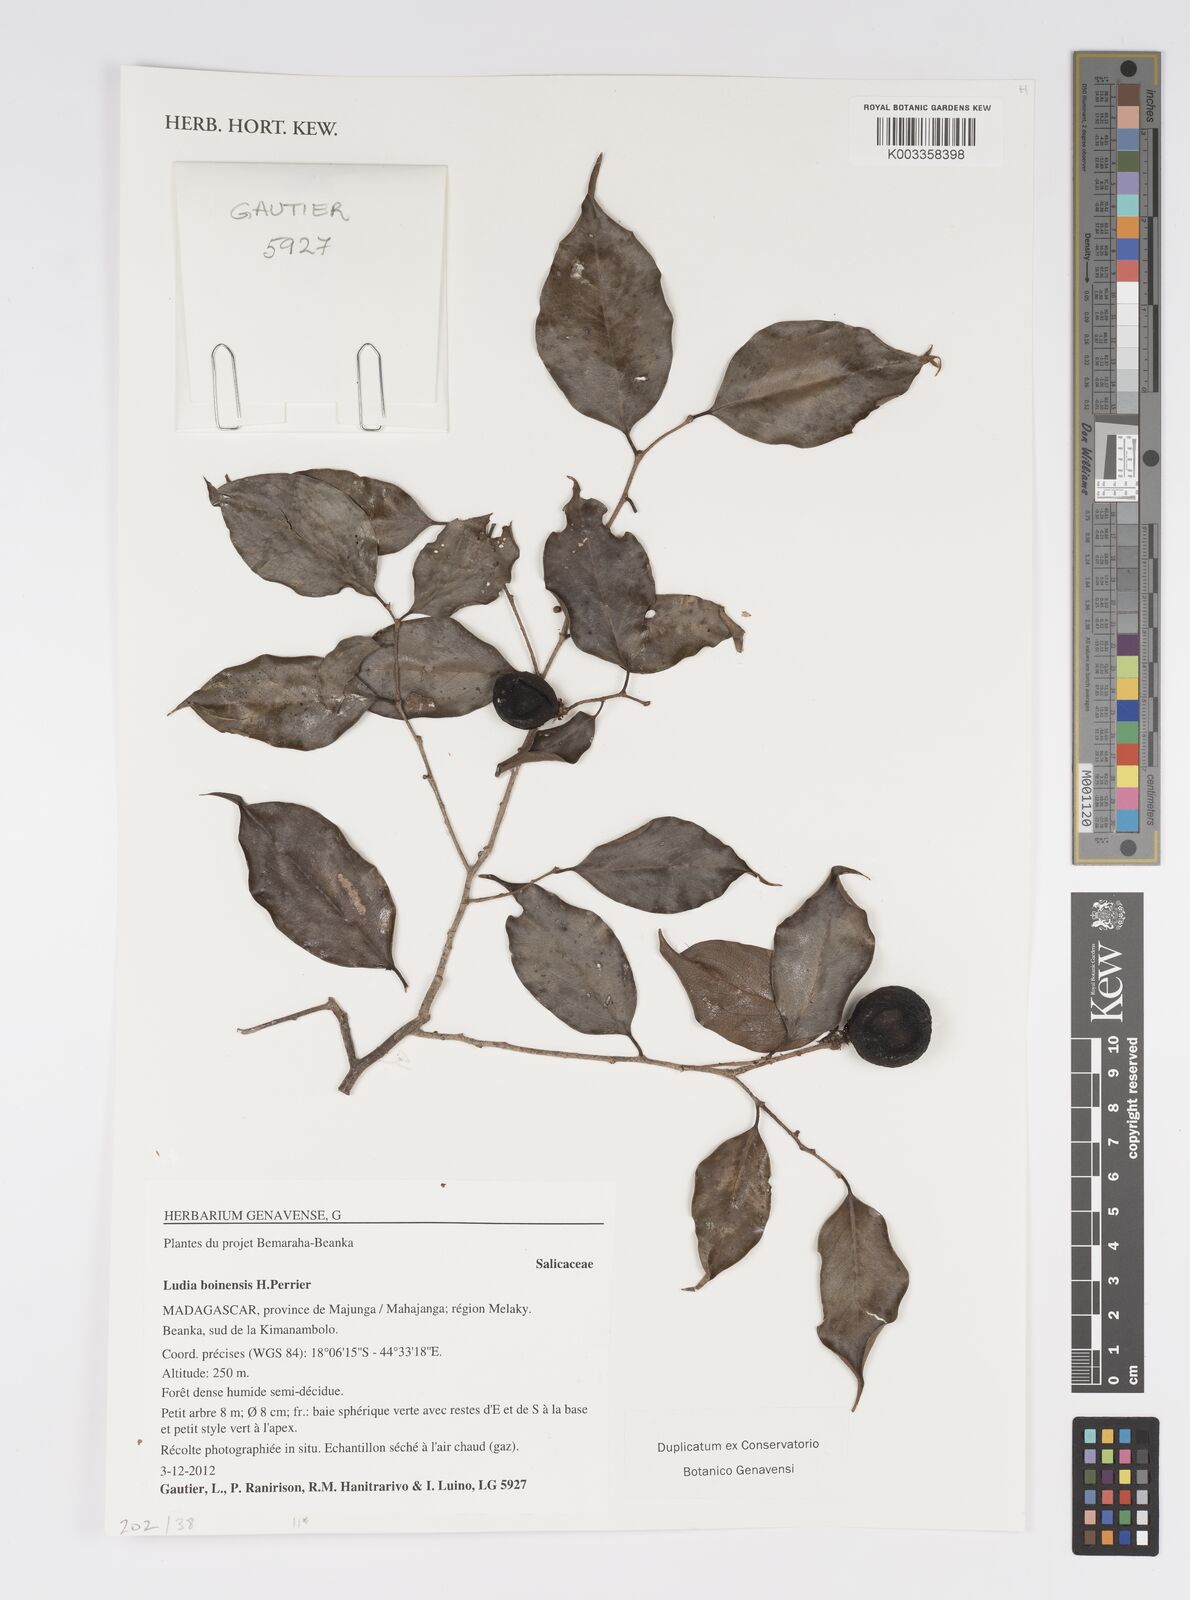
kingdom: Plantae
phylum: Tracheophyta
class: Magnoliopsida
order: Malpighiales
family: Salicaceae
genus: Ludia
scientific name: Ludia boinensis
